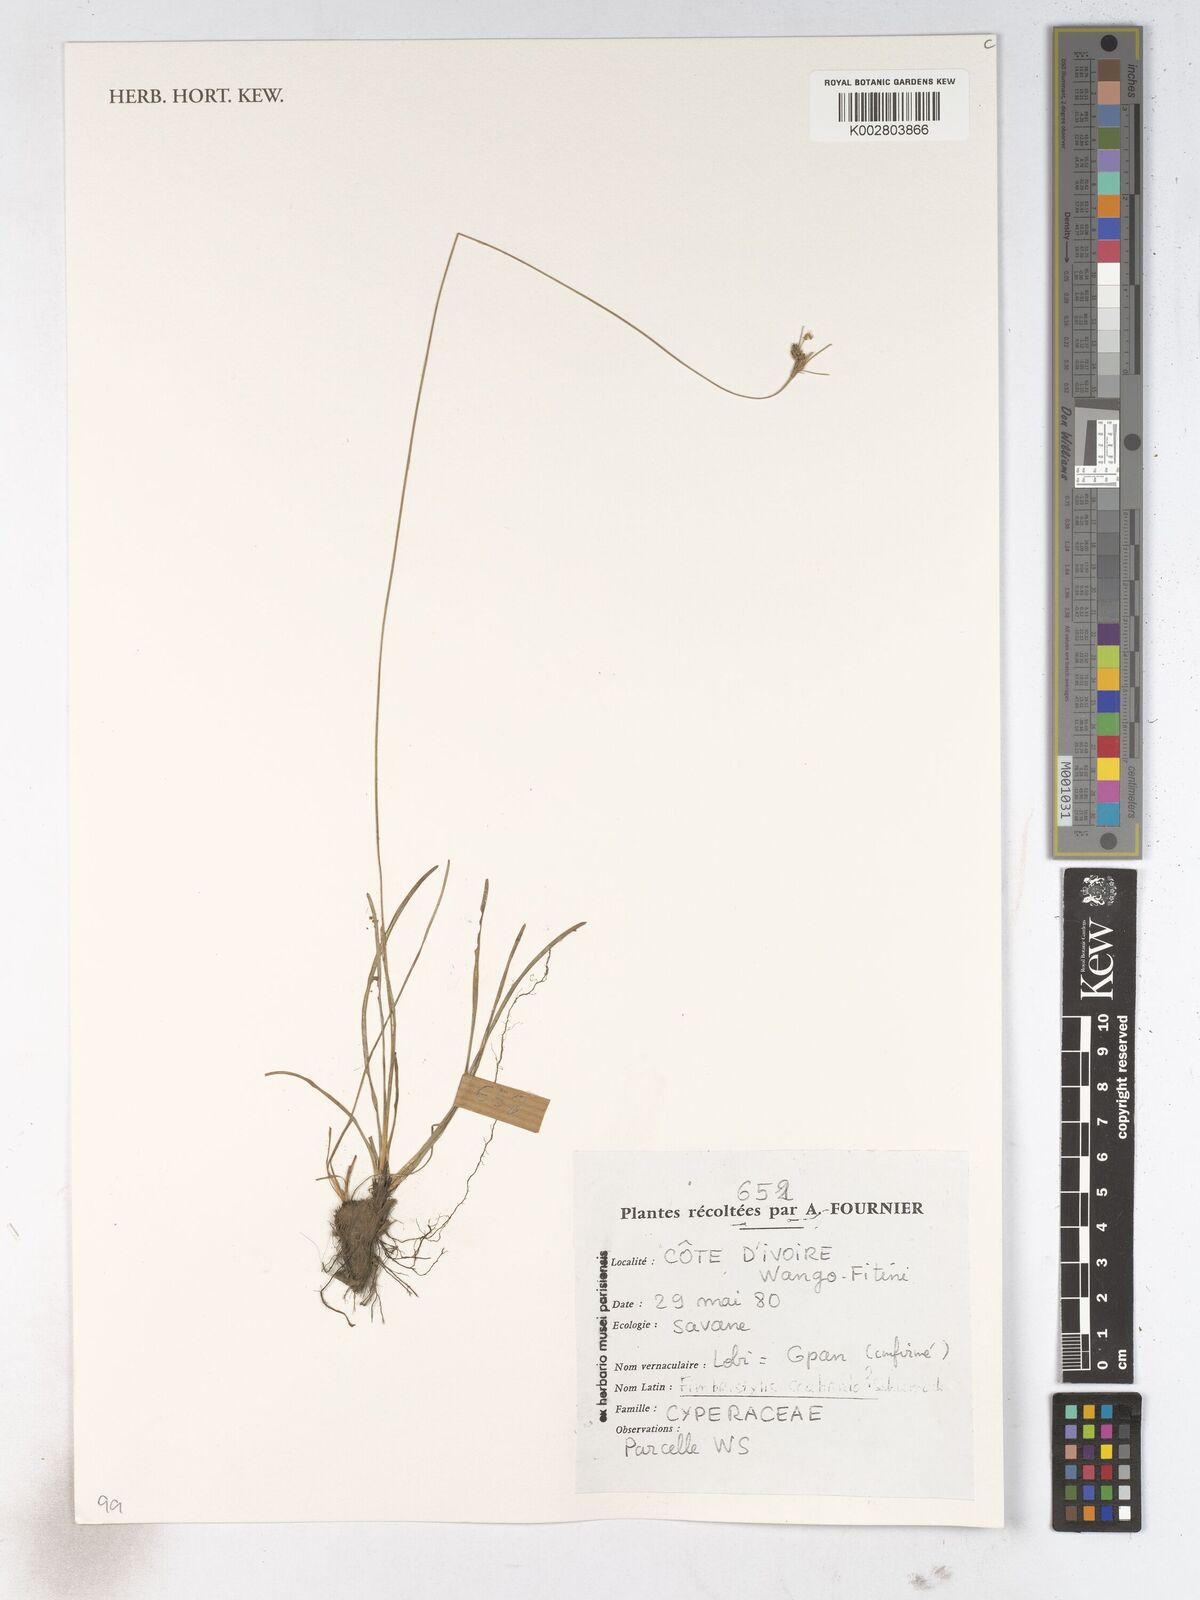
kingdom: Plantae
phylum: Tracheophyta
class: Liliopsida
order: Poales
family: Cyperaceae
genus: Fimbristylis
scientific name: Fimbristylis scabrida
